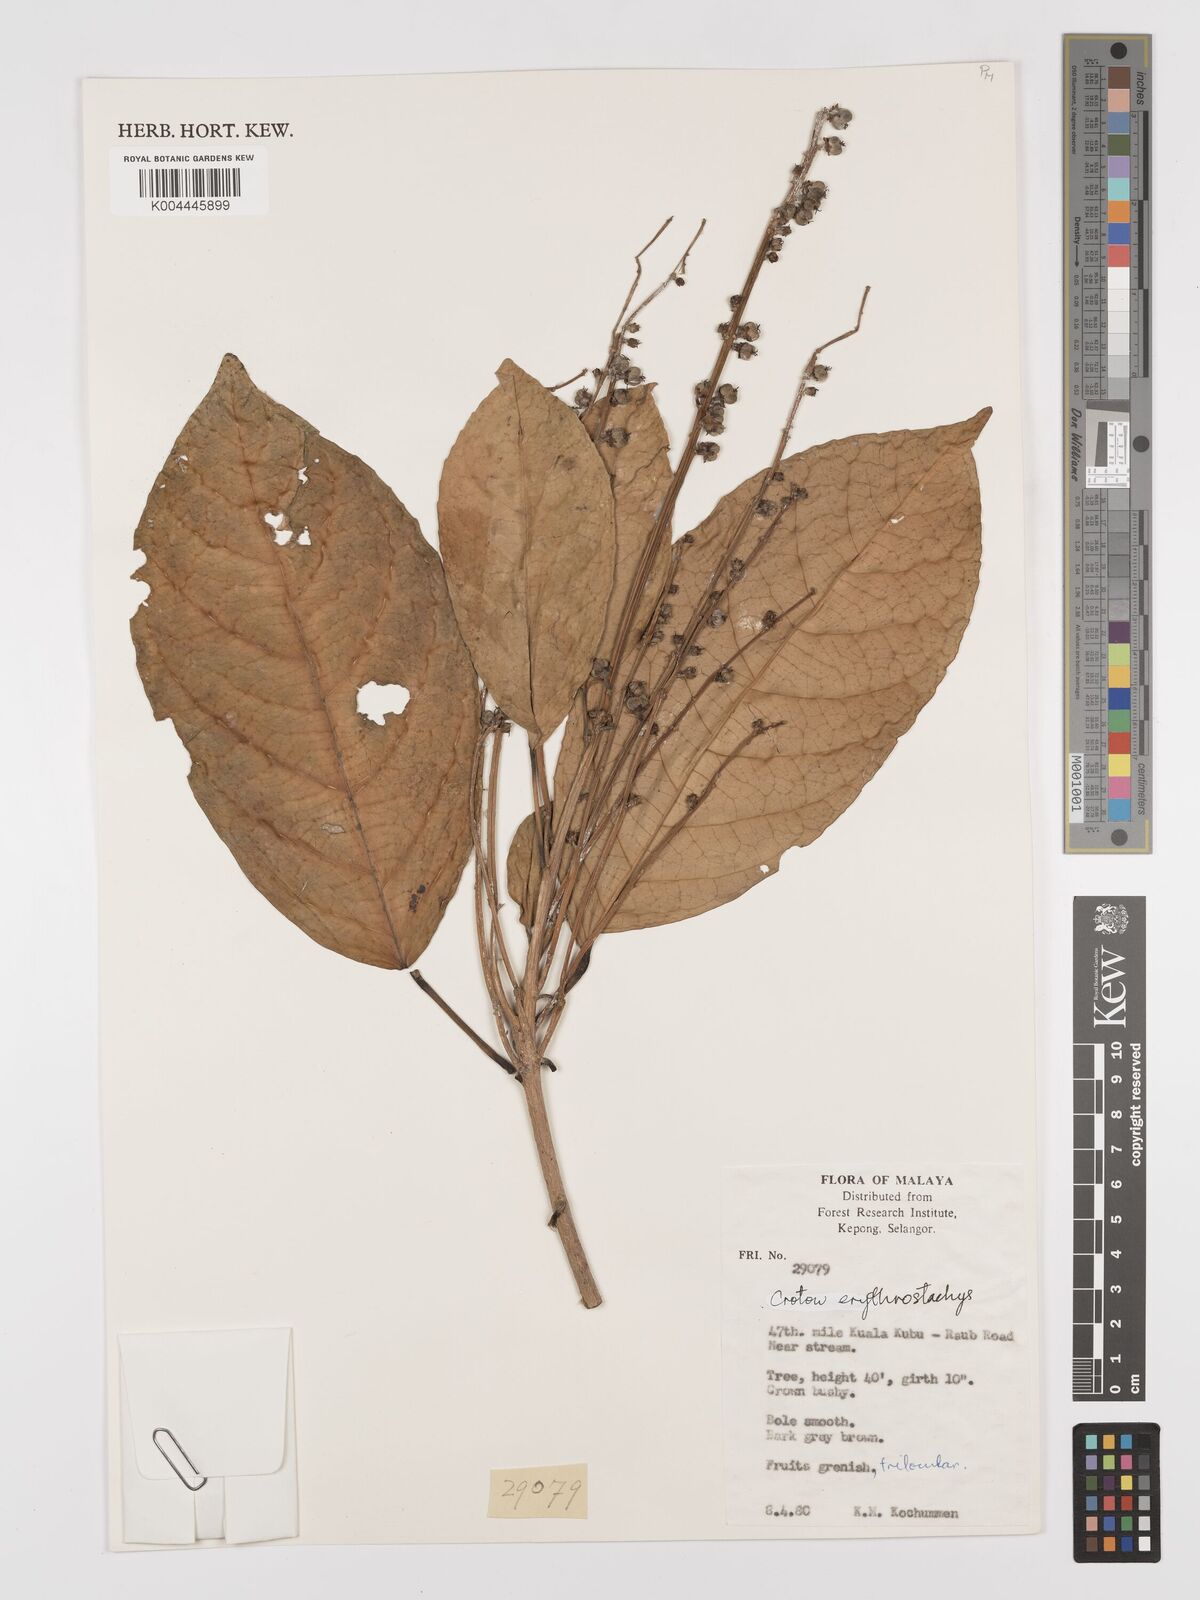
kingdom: Plantae
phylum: Tracheophyta
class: Magnoliopsida
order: Malpighiales
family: Euphorbiaceae
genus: Croton
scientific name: Croton erythrostachys
